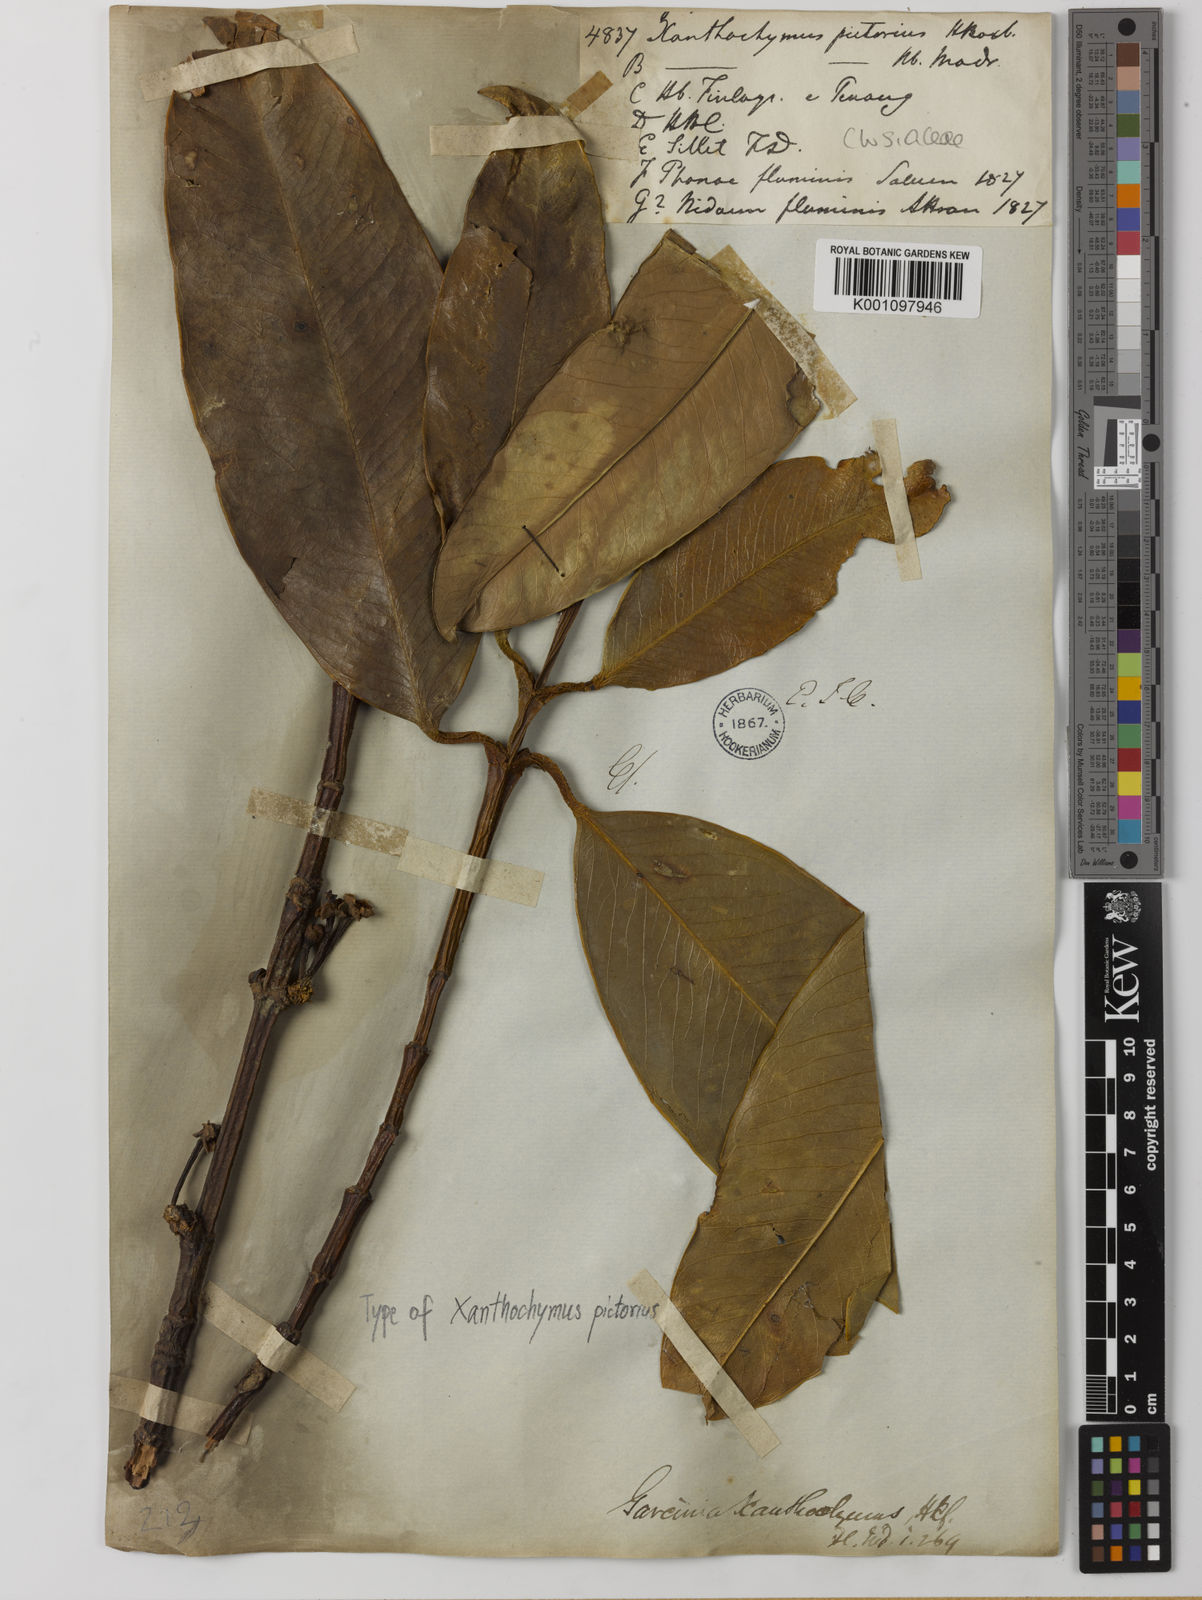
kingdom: Plantae
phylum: Tracheophyta
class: Magnoliopsida
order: Malpighiales
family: Clusiaceae
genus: Garcinia
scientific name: Garcinia xanthochymus
